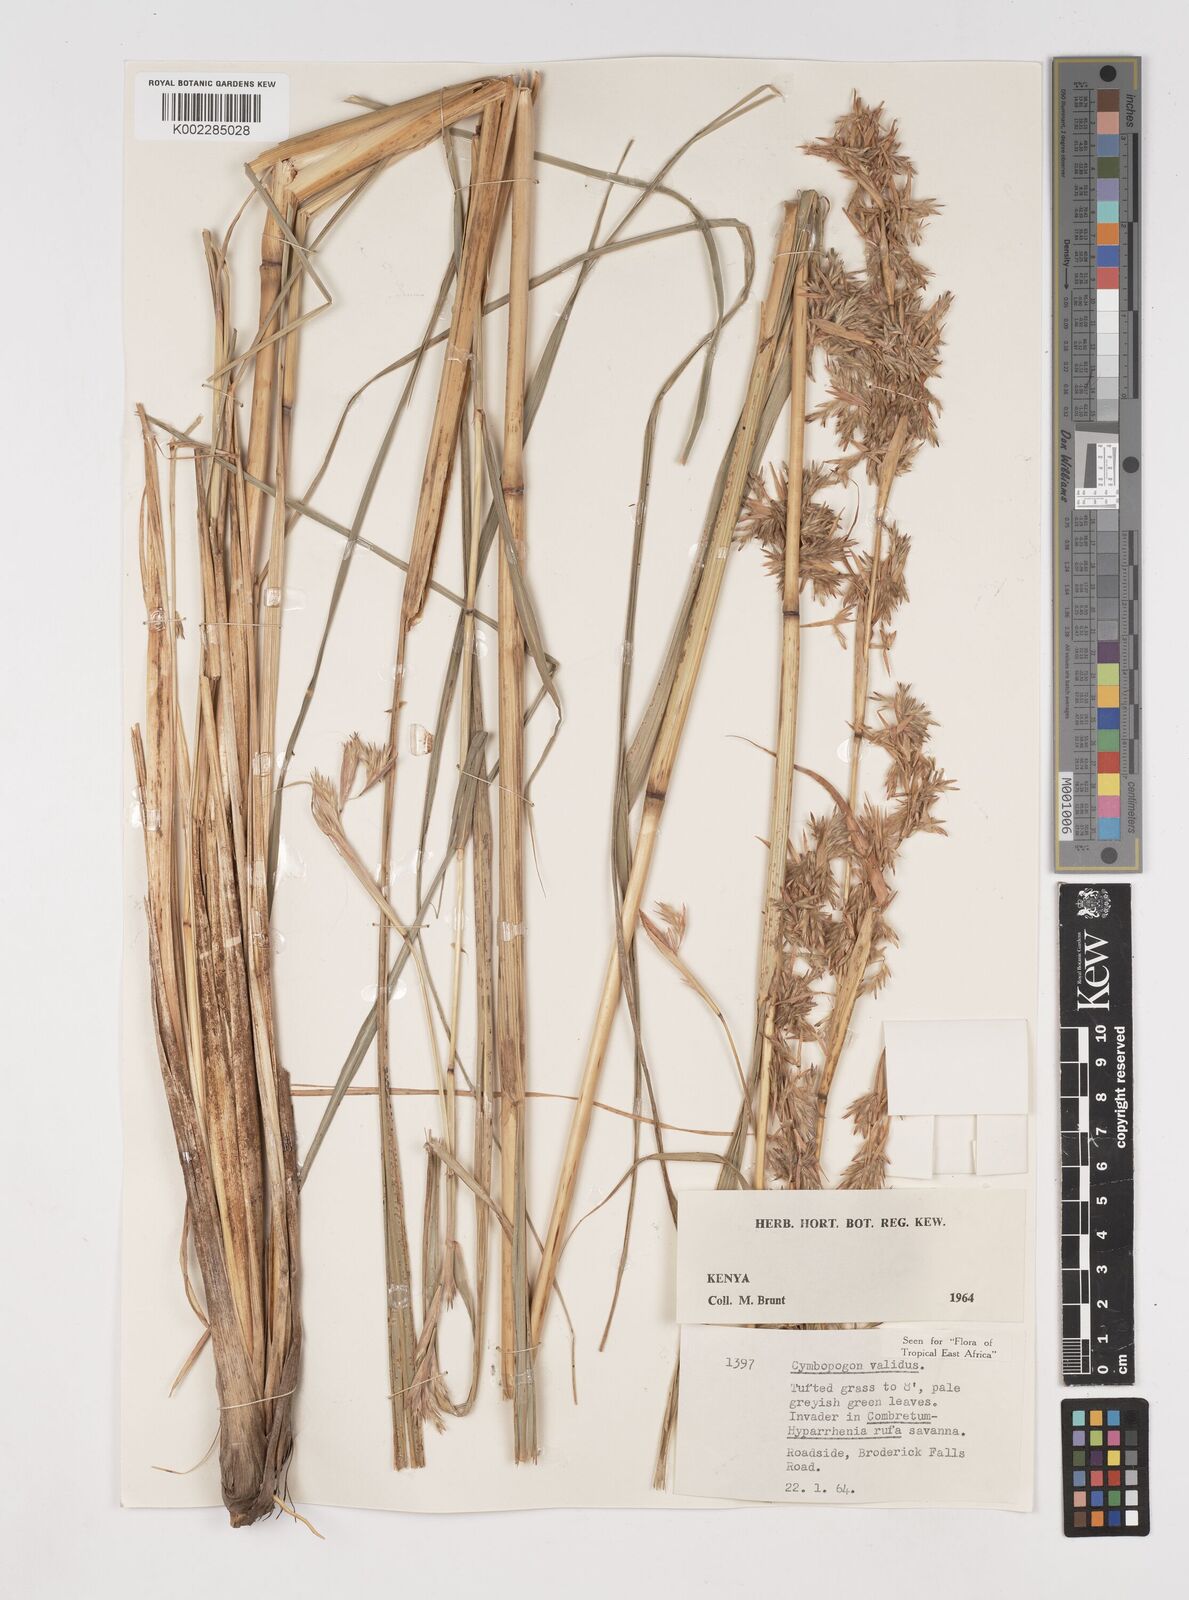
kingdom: Plantae
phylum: Tracheophyta
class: Liliopsida
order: Poales
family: Poaceae
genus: Cymbopogon
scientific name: Cymbopogon
